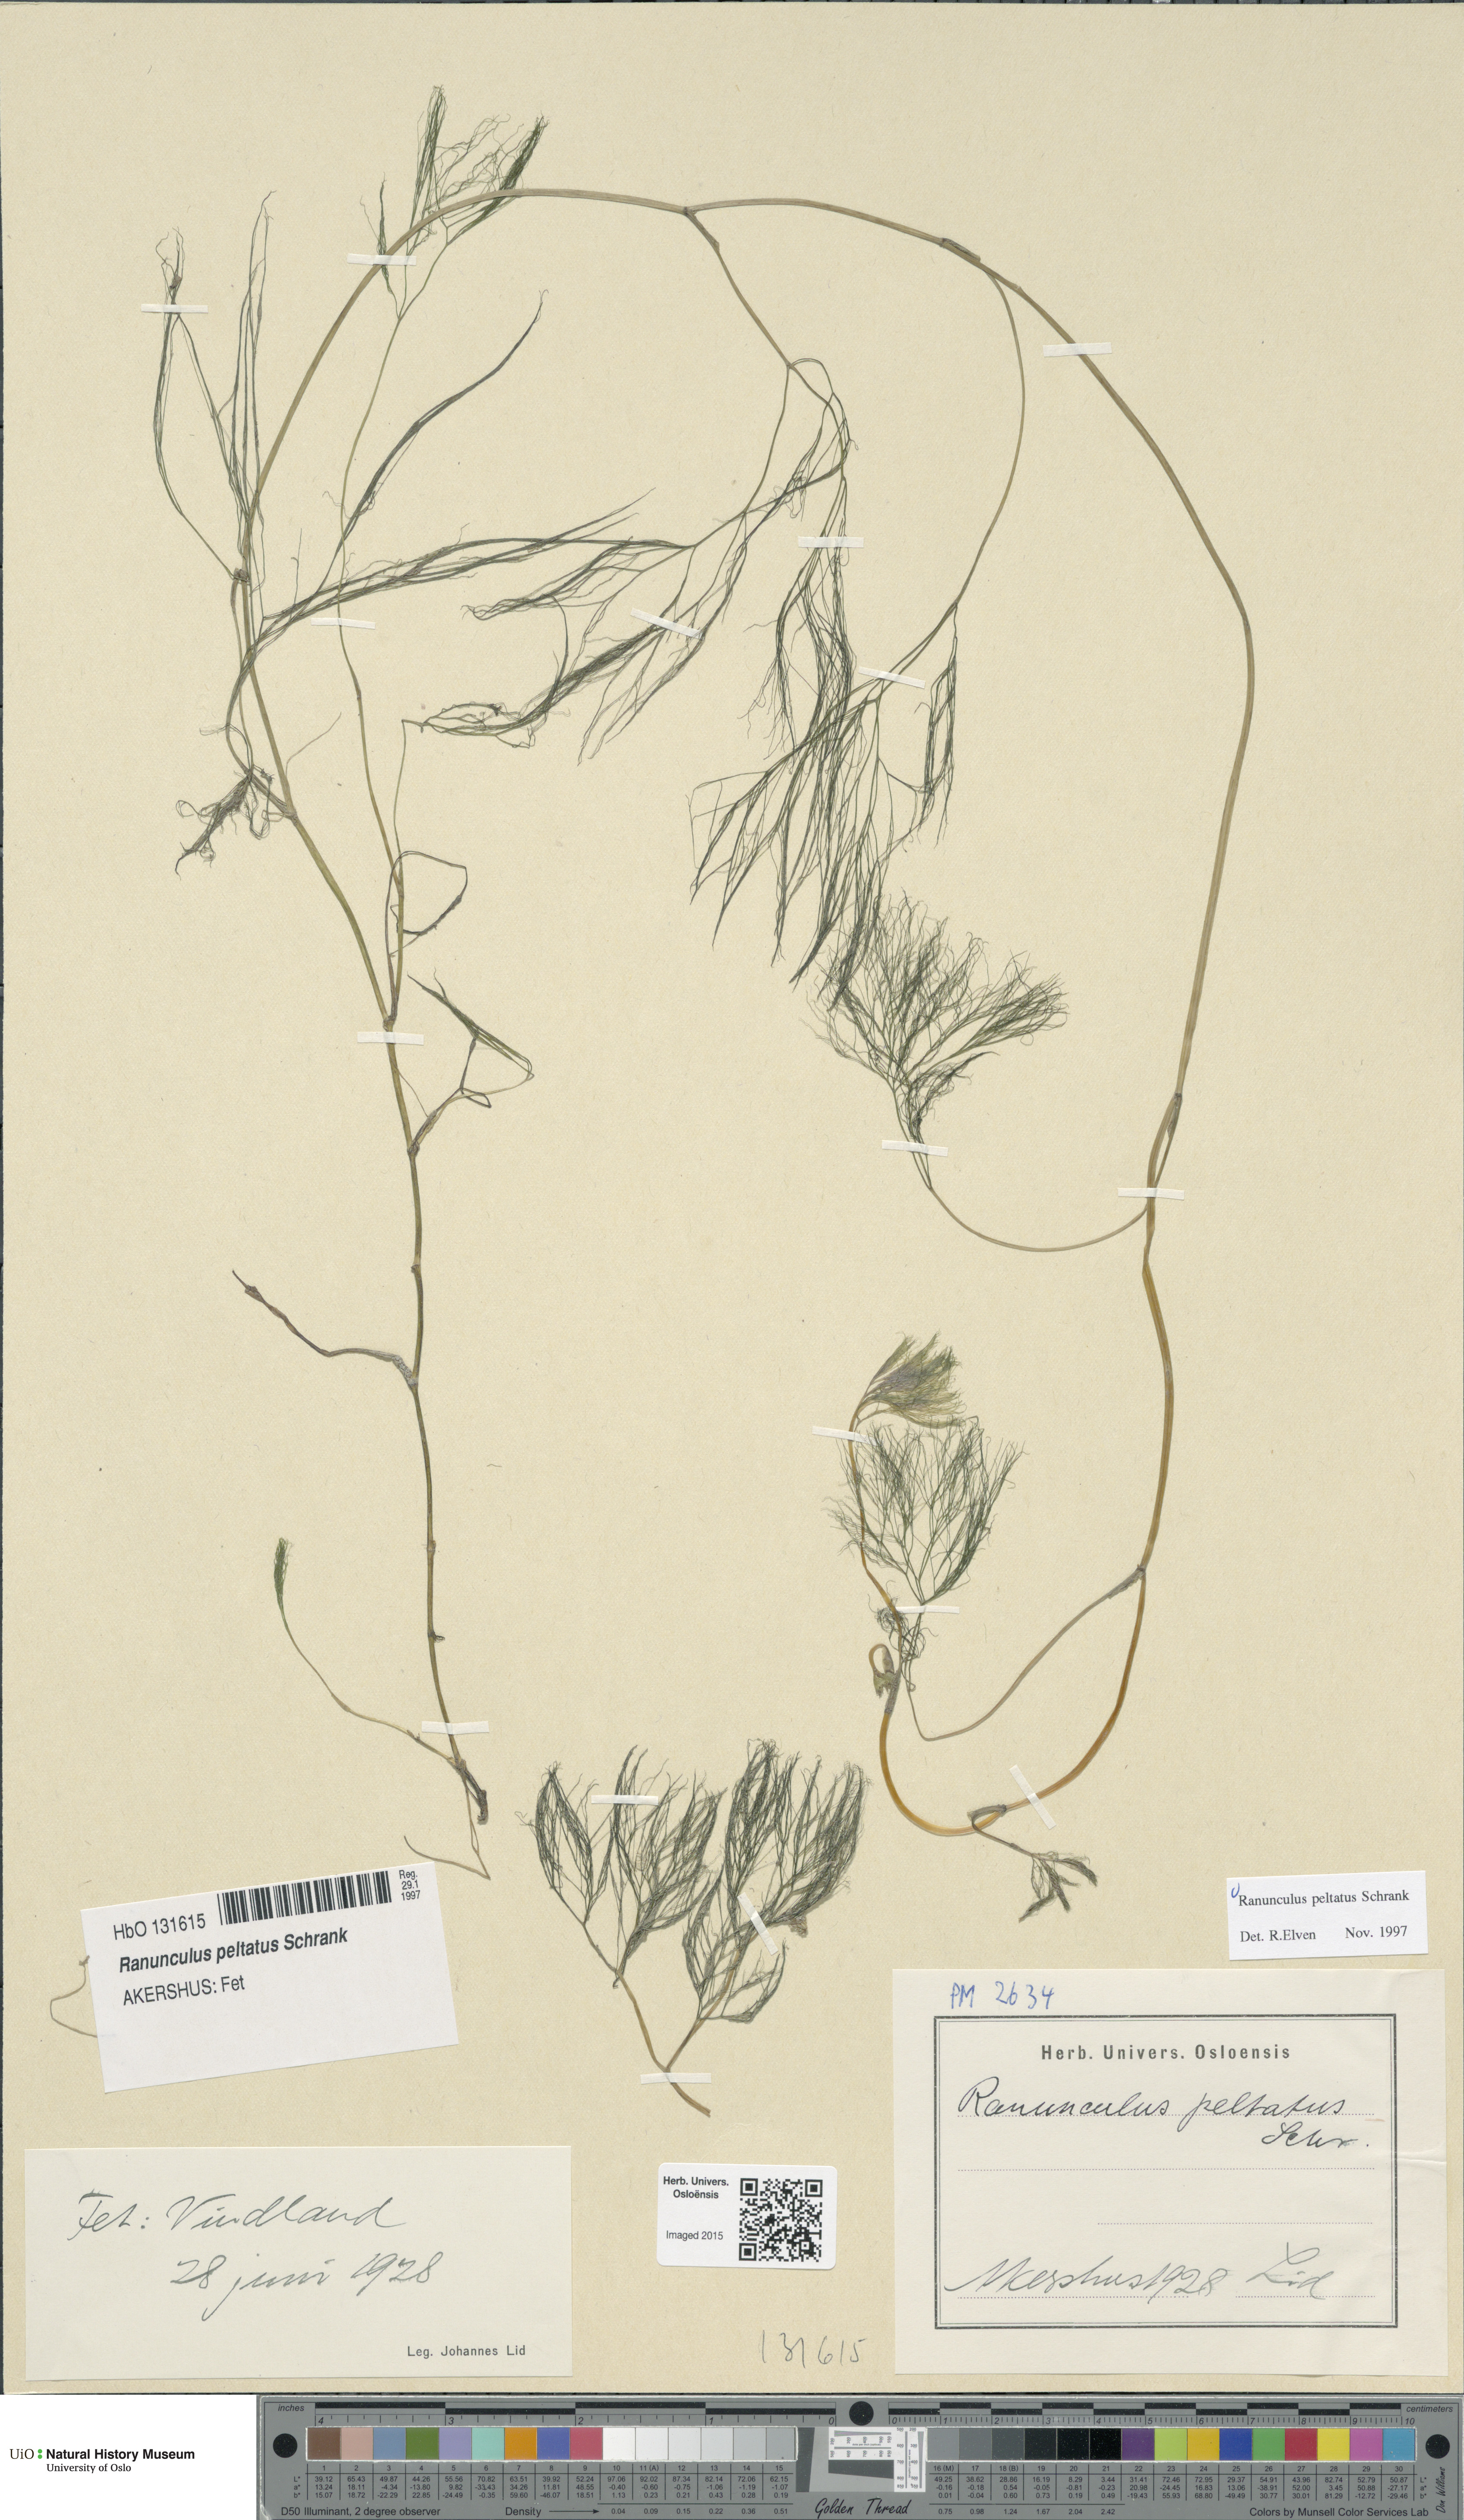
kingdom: Plantae
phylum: Tracheophyta
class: Magnoliopsida
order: Ranunculales
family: Ranunculaceae
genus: Ranunculus
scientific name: Ranunculus peltatus
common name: Pond water-crowfoot
